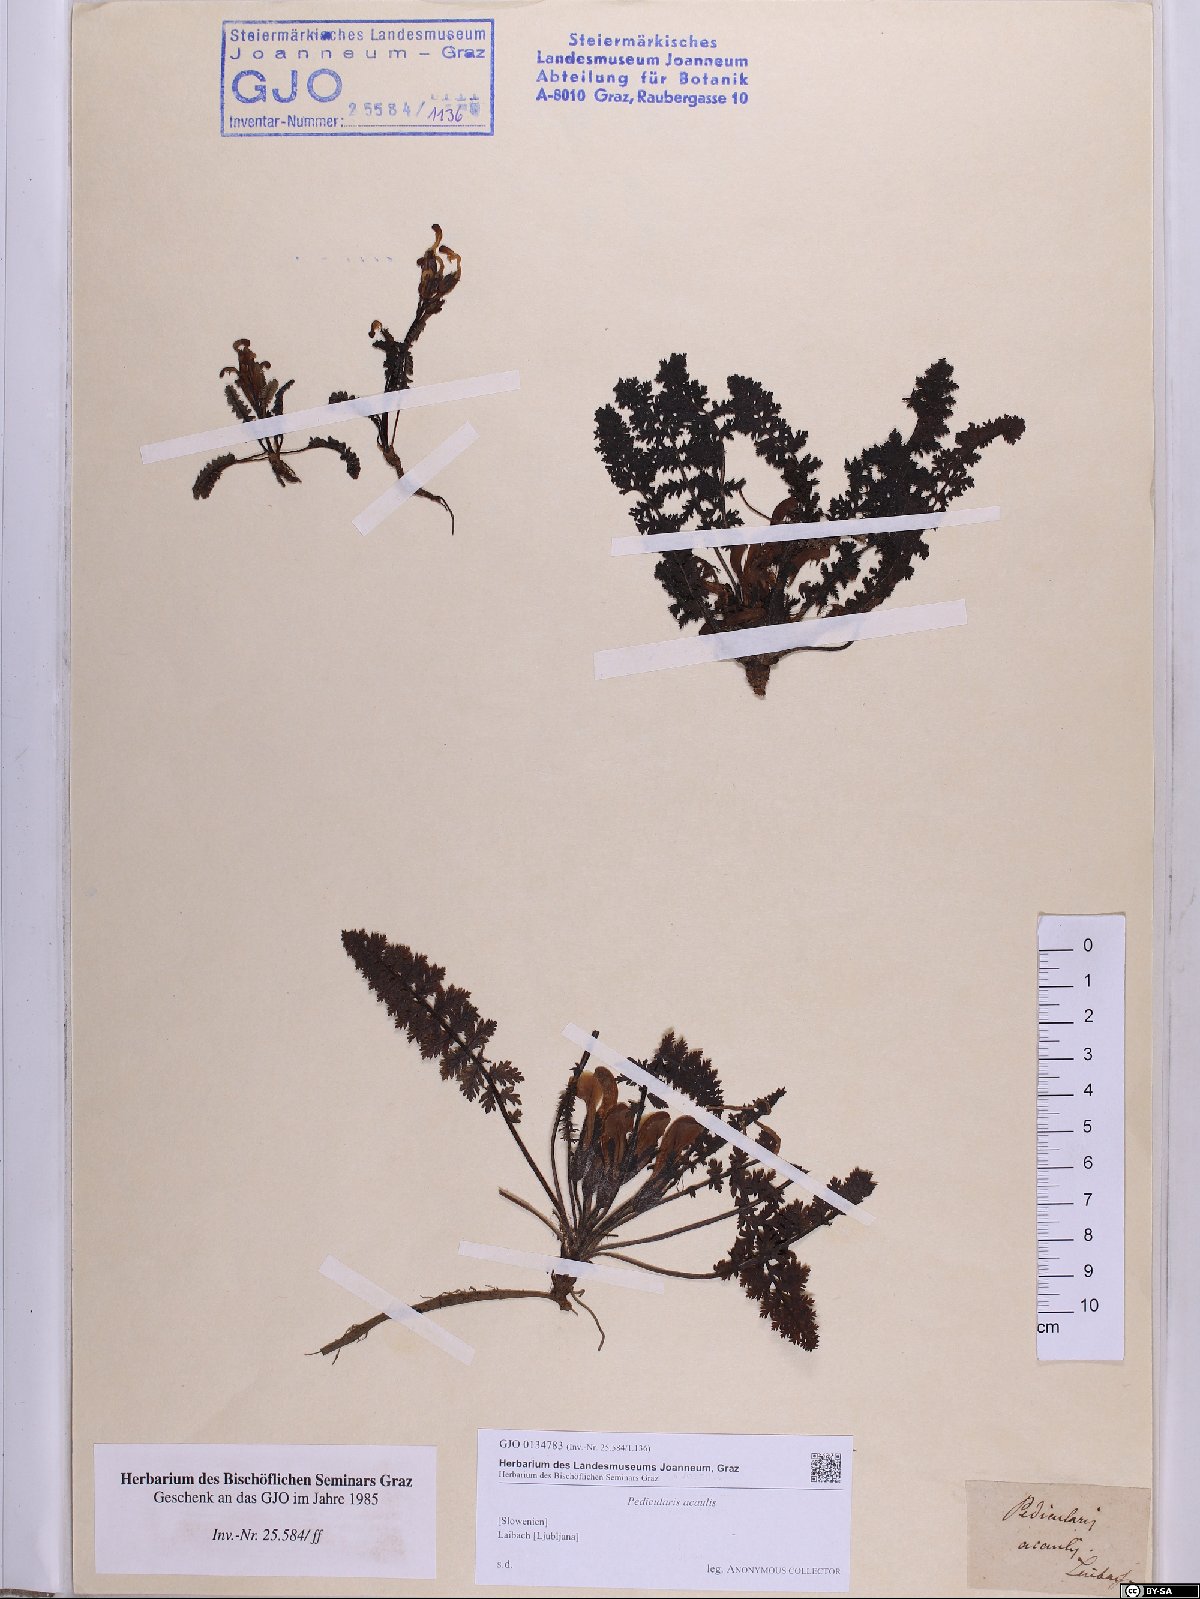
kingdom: Plantae
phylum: Tracheophyta
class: Magnoliopsida
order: Lamiales
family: Orobanchaceae
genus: Pedicularis
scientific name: Pedicularis acaulis
